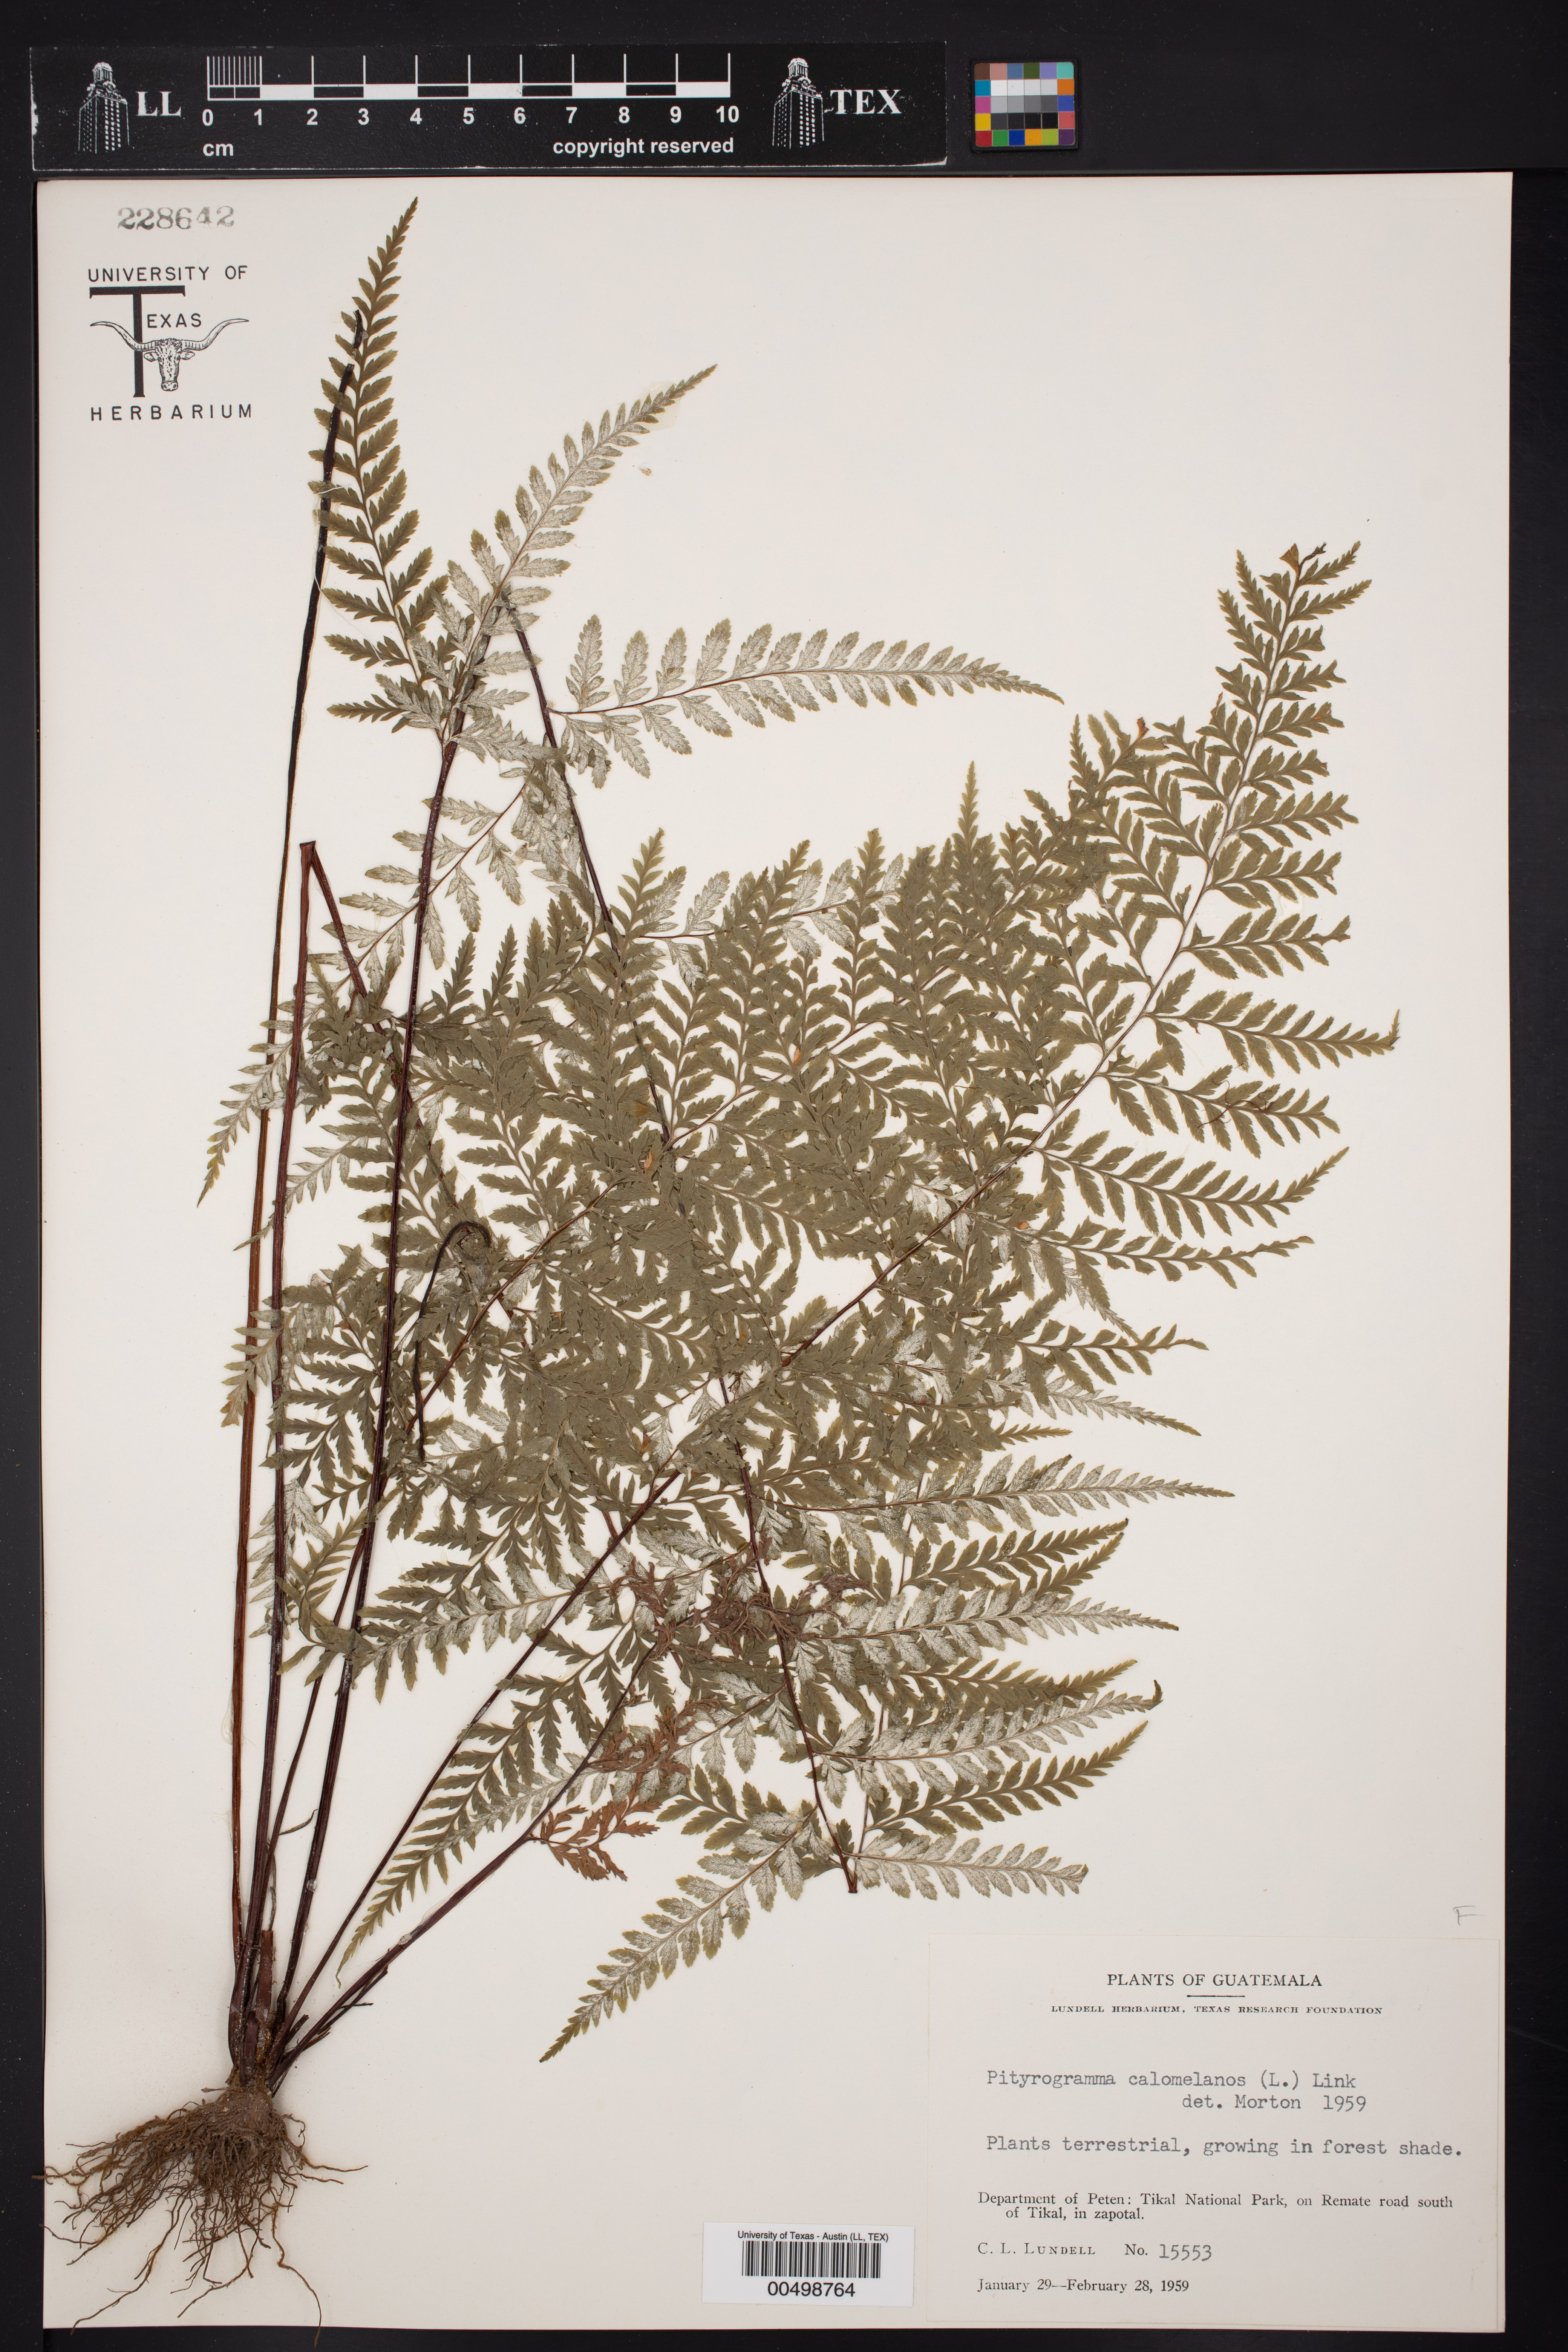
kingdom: Plantae
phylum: Tracheophyta
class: Polypodiopsida
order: Polypodiales
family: Pteridaceae
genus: Pityrogramma
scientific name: Pityrogramma calomelanos
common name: Dixie silverback fern
